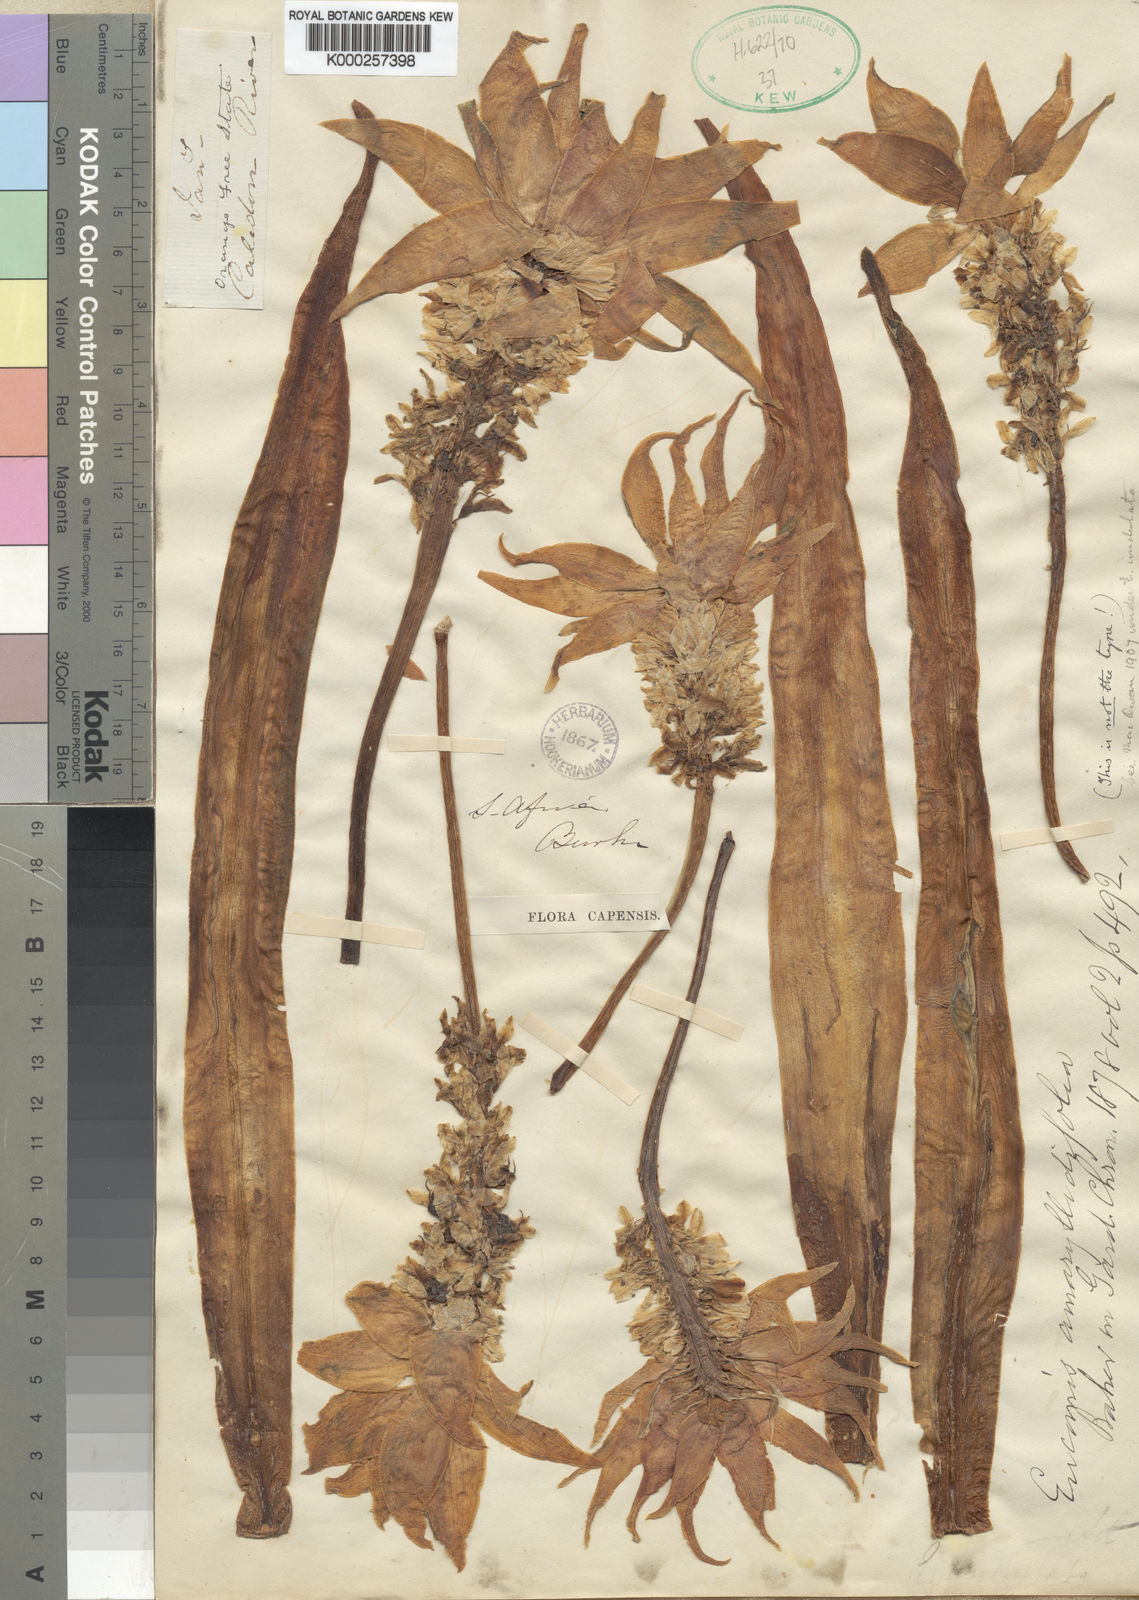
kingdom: Plantae
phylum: Tracheophyta
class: Liliopsida
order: Asparagales
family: Asparagaceae
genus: Eucomis
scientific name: Eucomis amaryllidifolia
